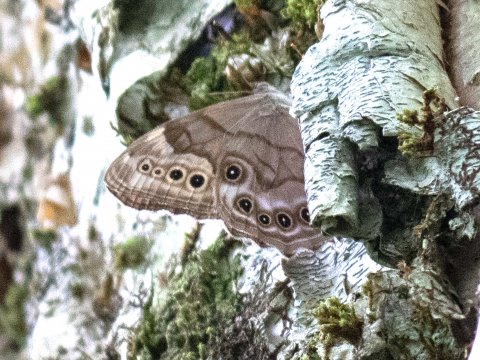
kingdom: Animalia
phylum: Arthropoda
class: Insecta
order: Lepidoptera
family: Nymphalidae
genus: Lethe
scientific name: Lethe anthedon
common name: Northern Pearly-Eye
